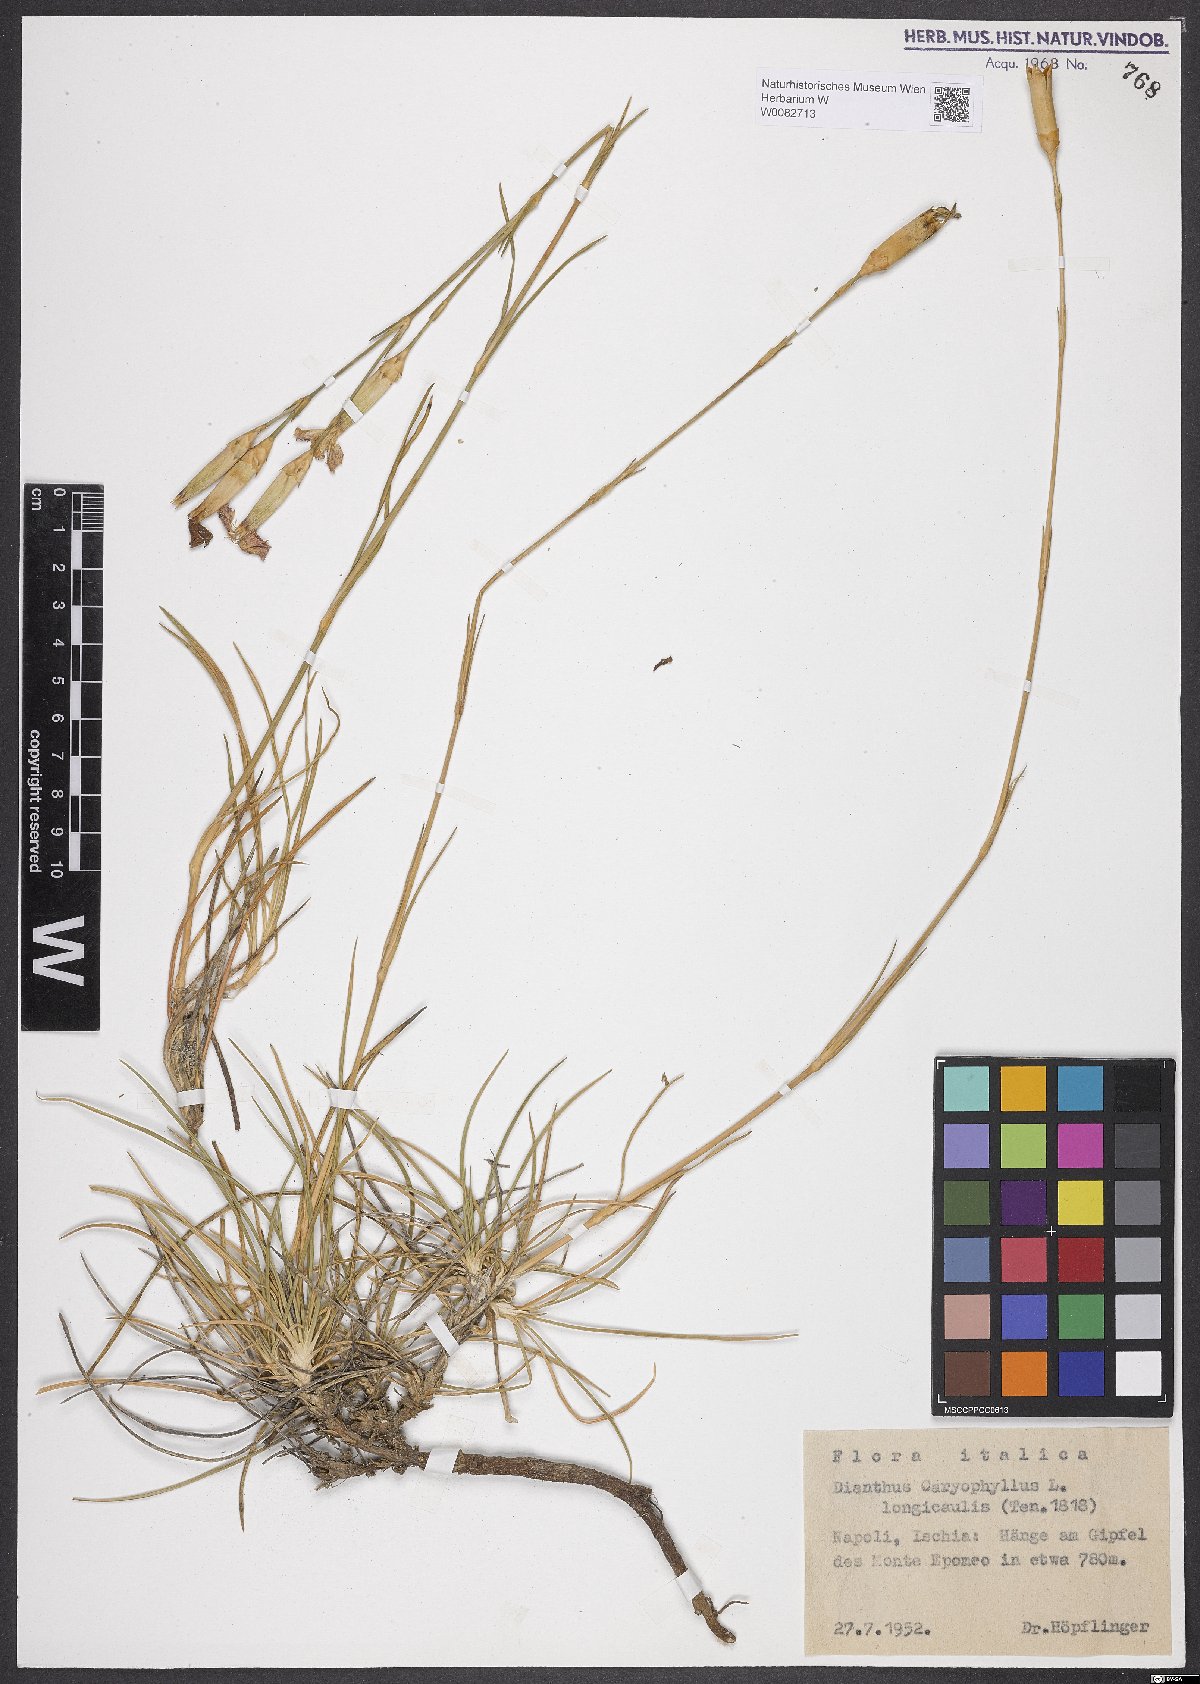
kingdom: Plantae
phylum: Tracheophyta
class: Magnoliopsida
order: Caryophyllales
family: Caryophyllaceae
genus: Dianthus
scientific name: Dianthus caryophyllus
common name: Clove pink
